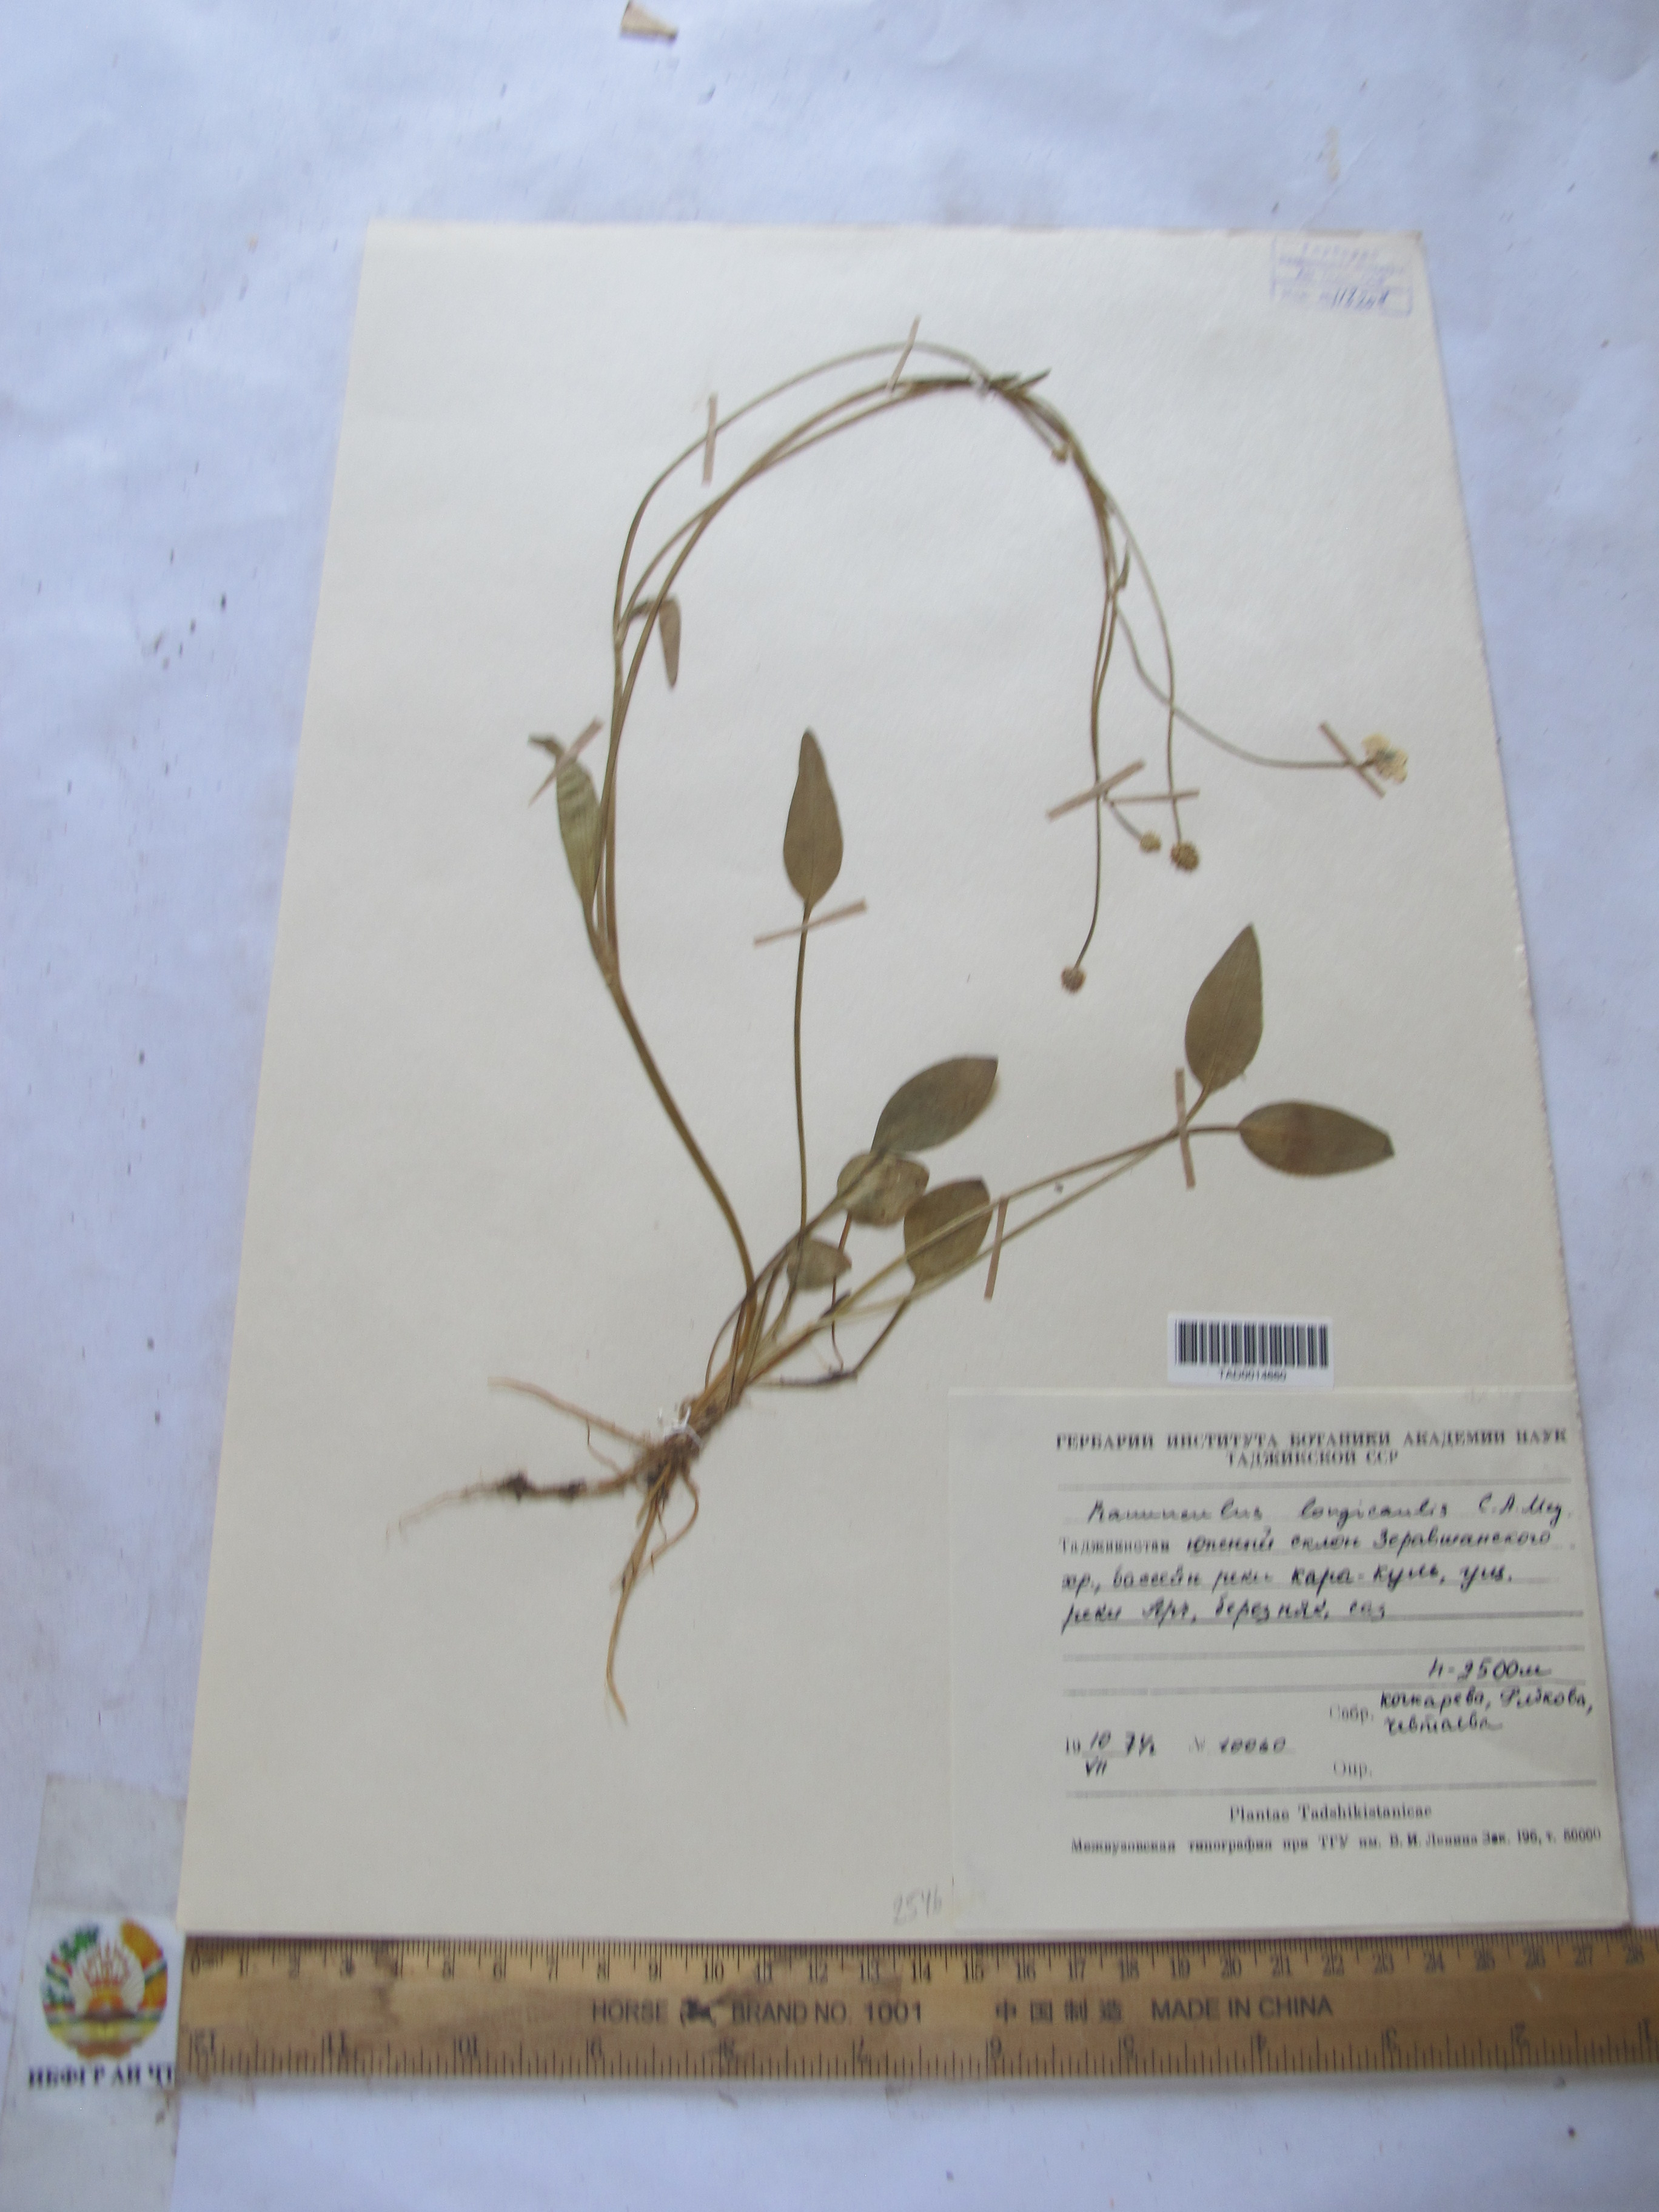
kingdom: Plantae
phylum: Tracheophyta
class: Magnoliopsida
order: Ranunculales
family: Ranunculaceae
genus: Ranunculus
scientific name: Ranunculus longicaulis
